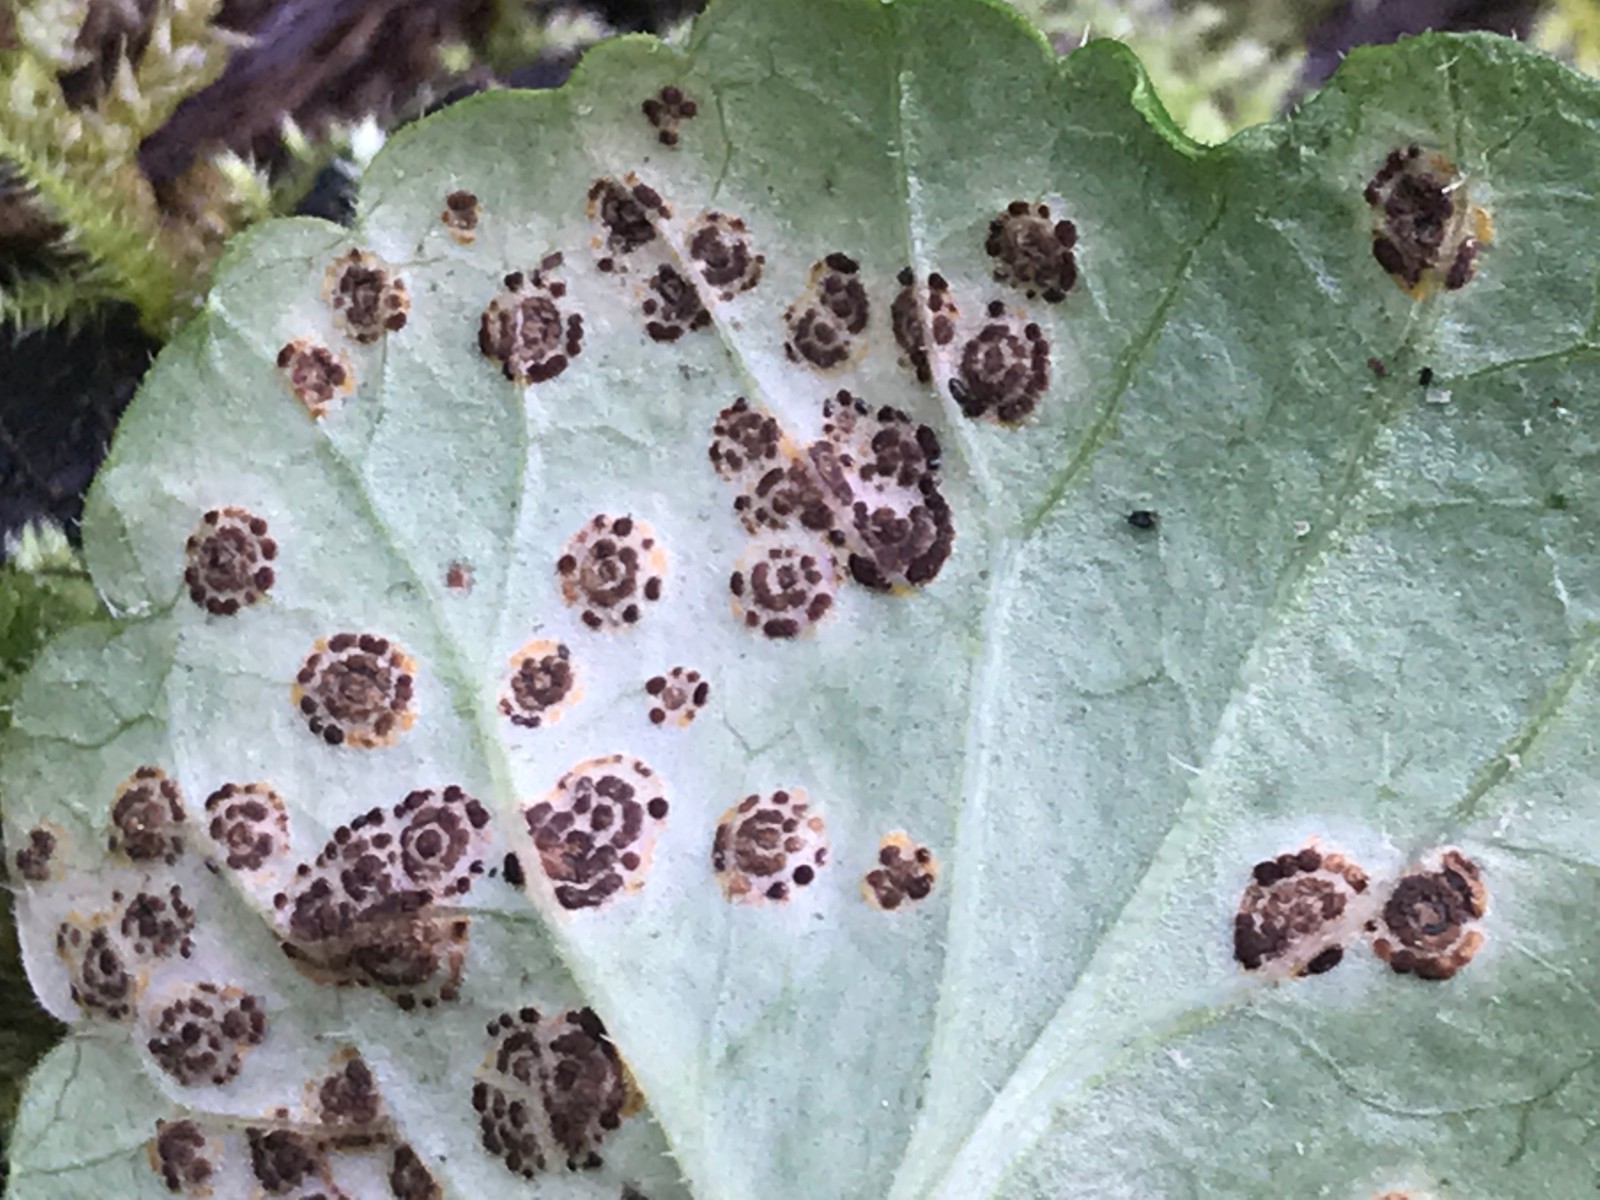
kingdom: Fungi
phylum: Basidiomycota
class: Pucciniomycetes
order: Pucciniales
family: Pucciniaceae
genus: Puccinia
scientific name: Puccinia glechomatis
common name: Ground ivy rust
